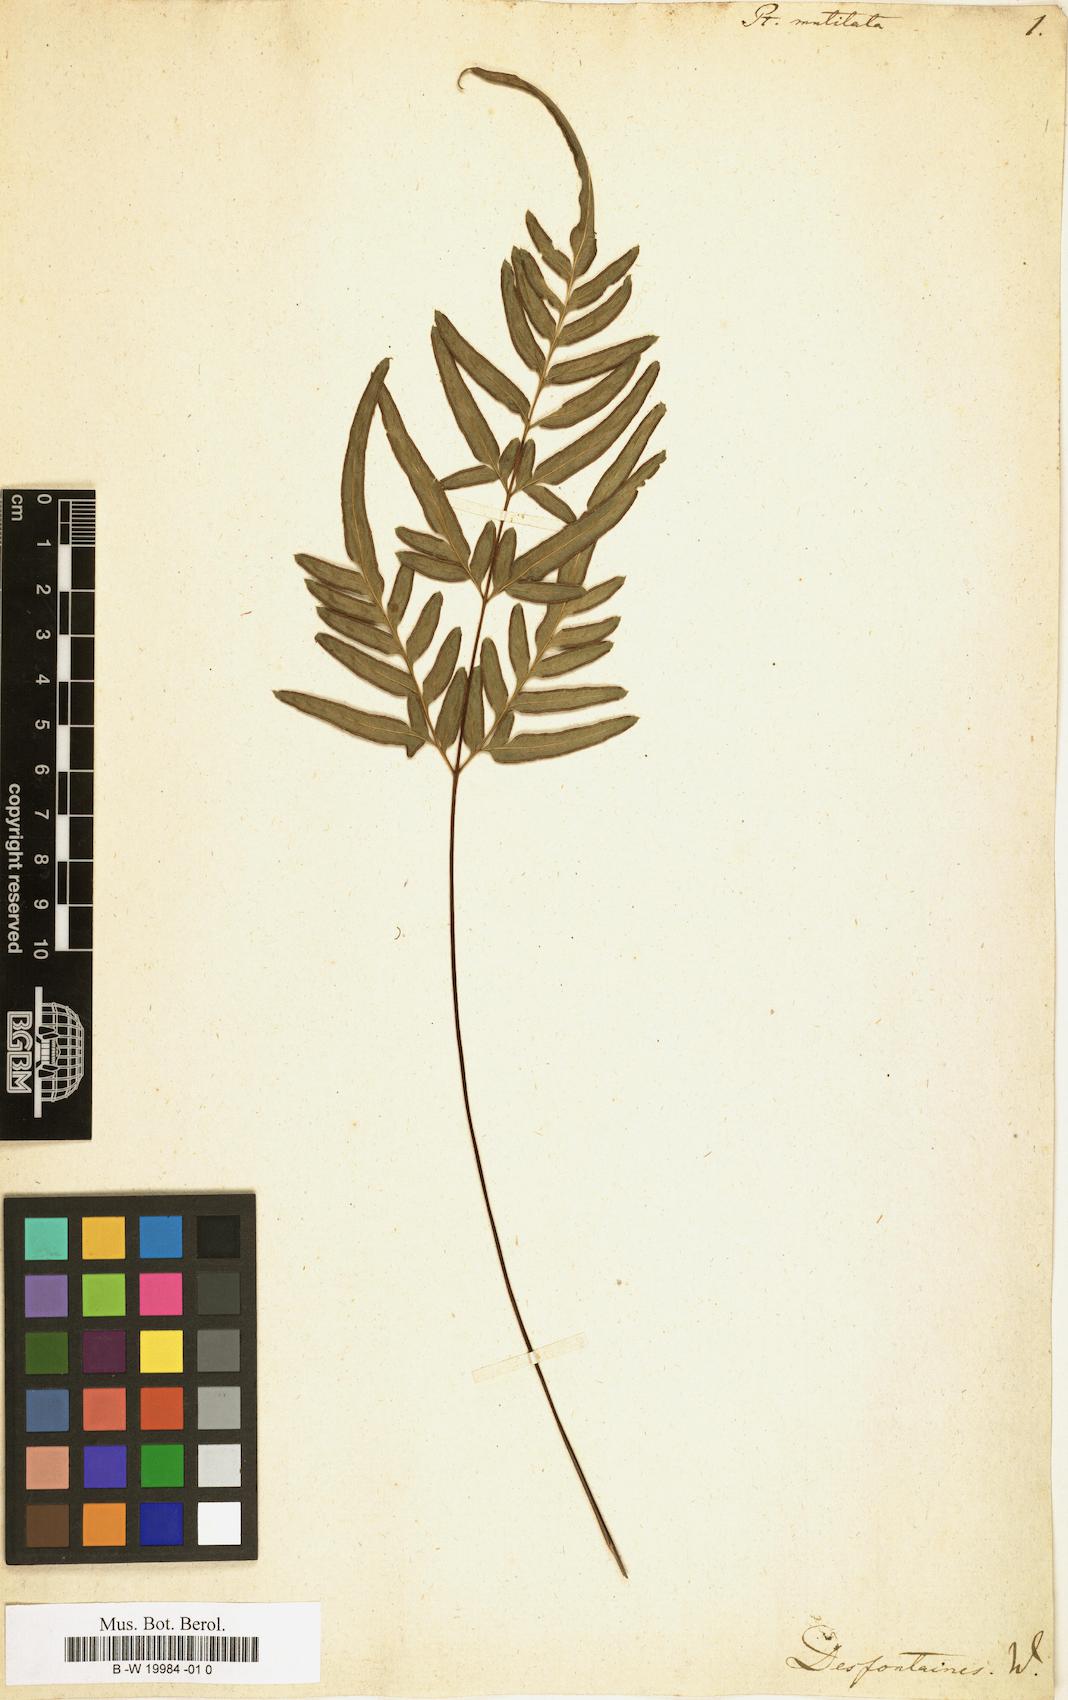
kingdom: Plantae
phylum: Tracheophyta
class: Polypodiopsida
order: Polypodiales
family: Pteridaceae
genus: Pteris
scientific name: Pteris mutilata
